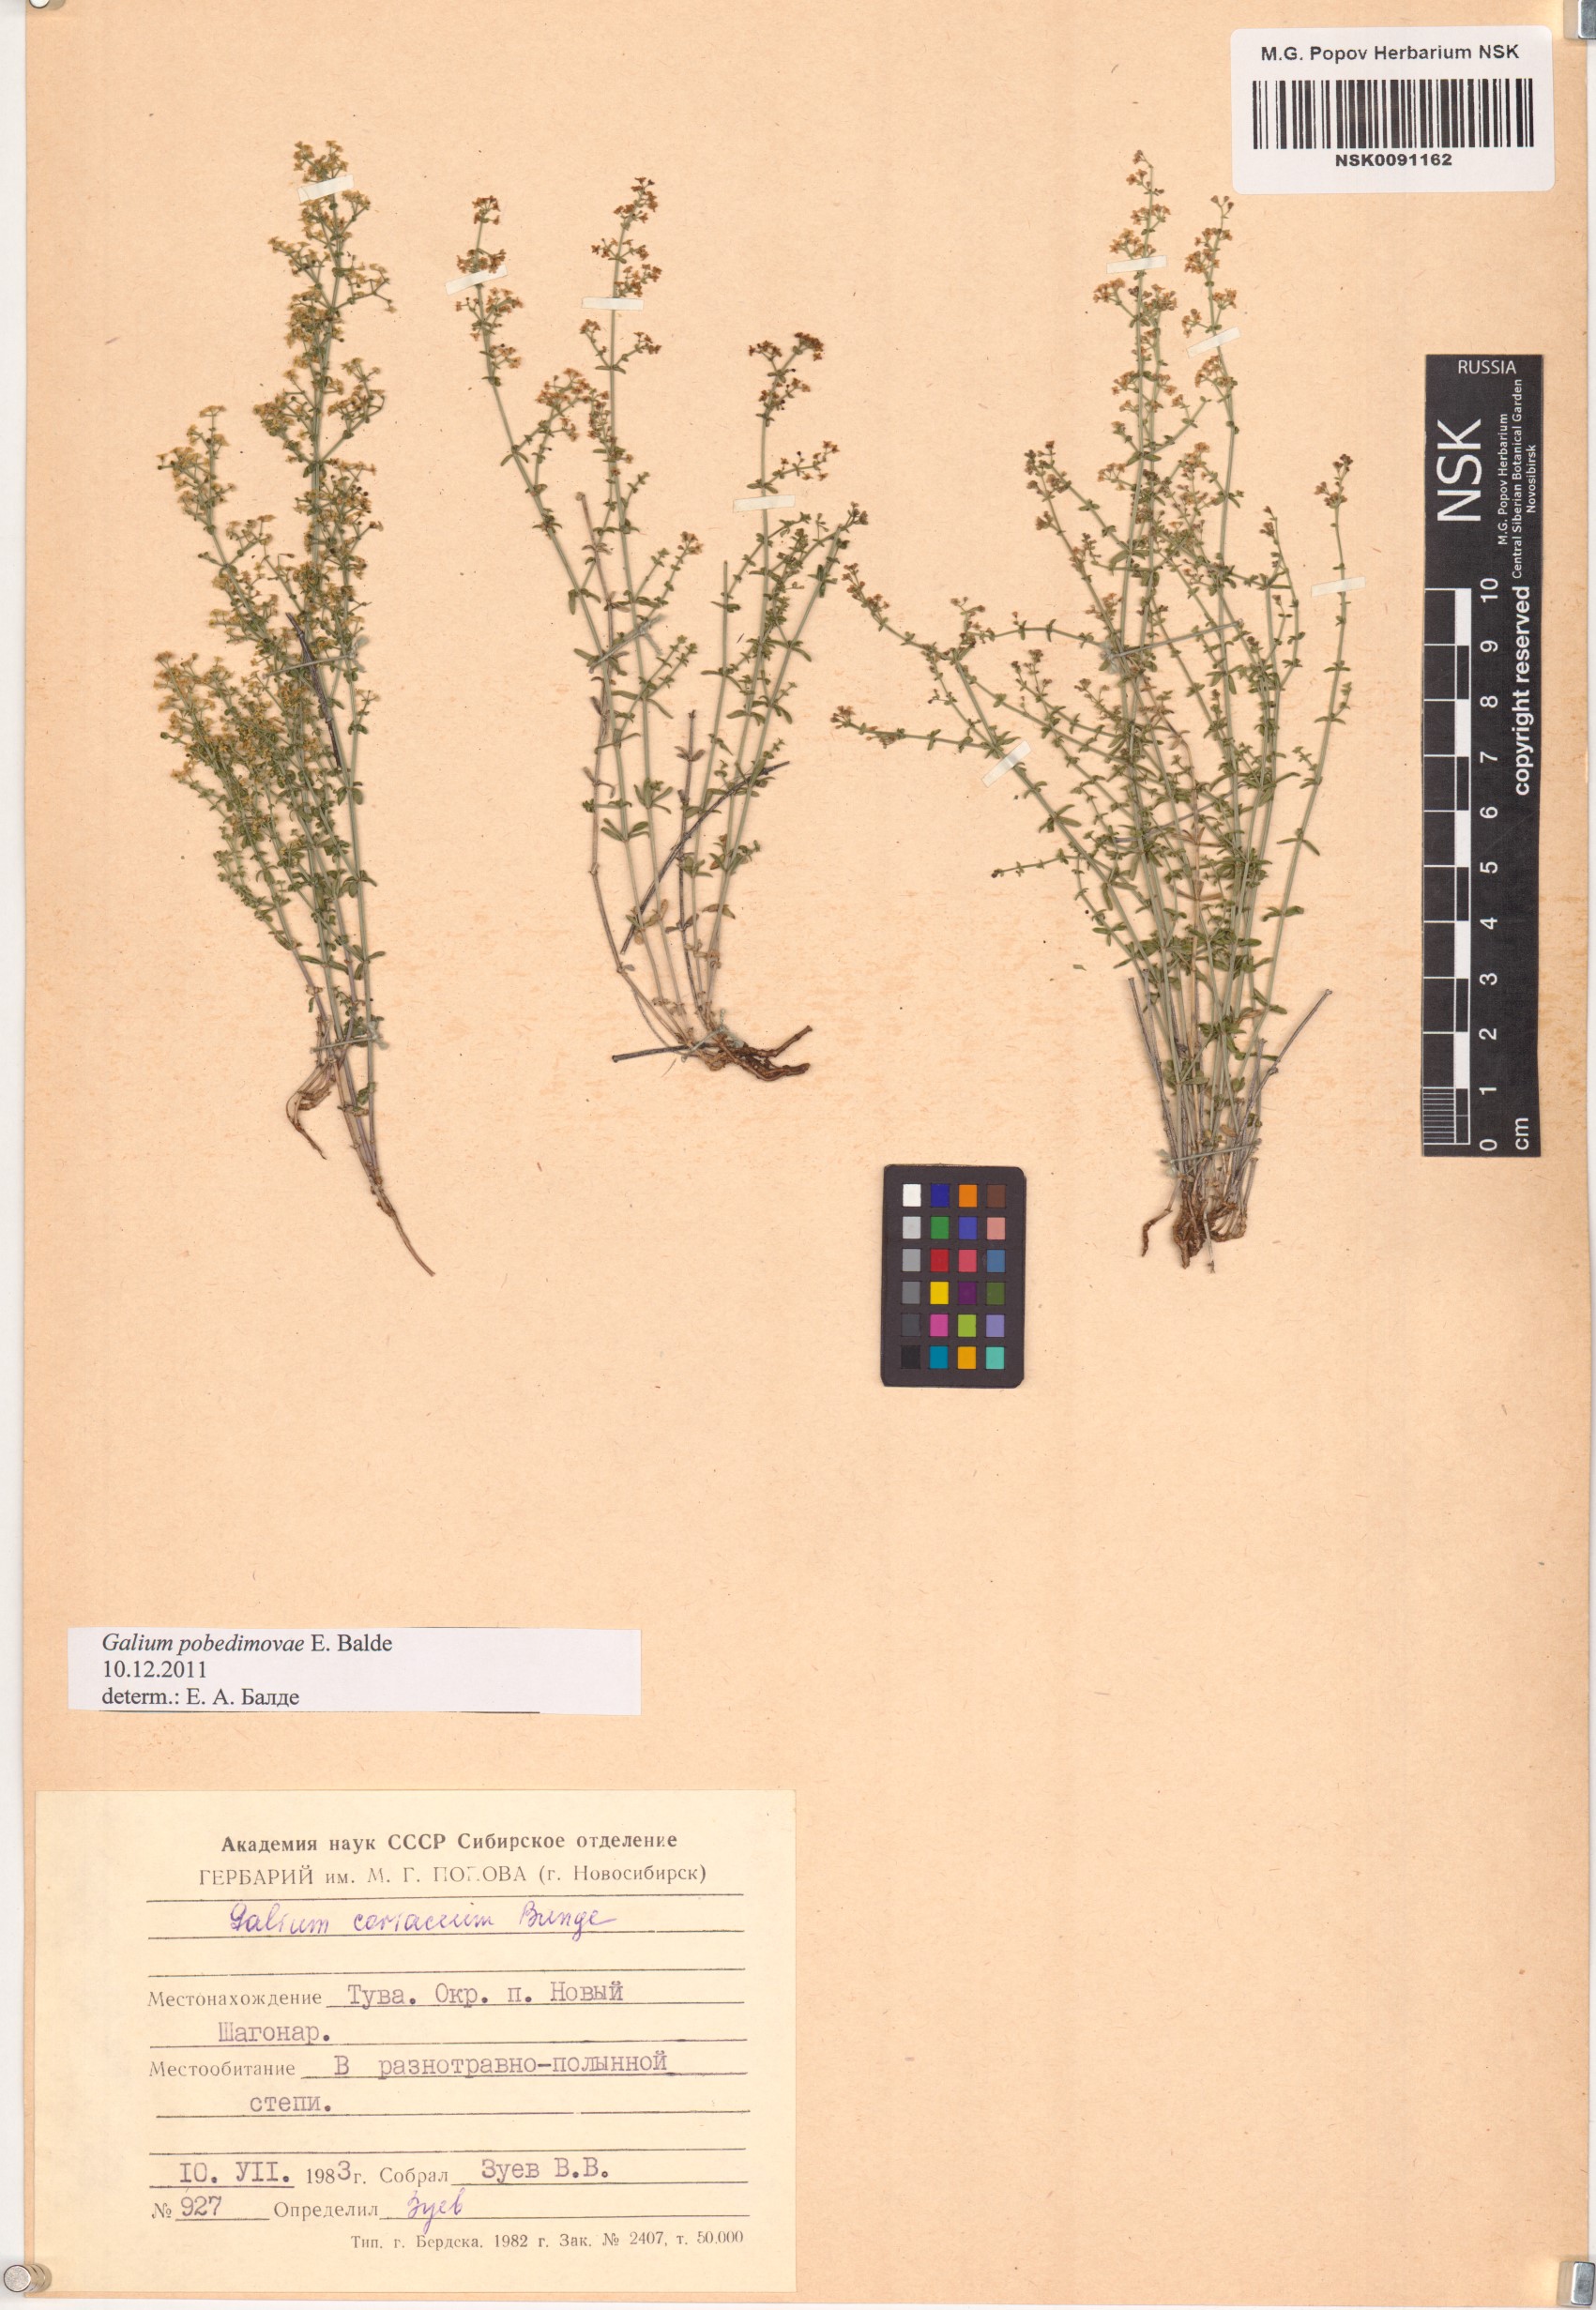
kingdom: Plantae
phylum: Tracheophyta
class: Magnoliopsida
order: Gentianales
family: Rubiaceae
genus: Galium
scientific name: Galium pobedimovae
